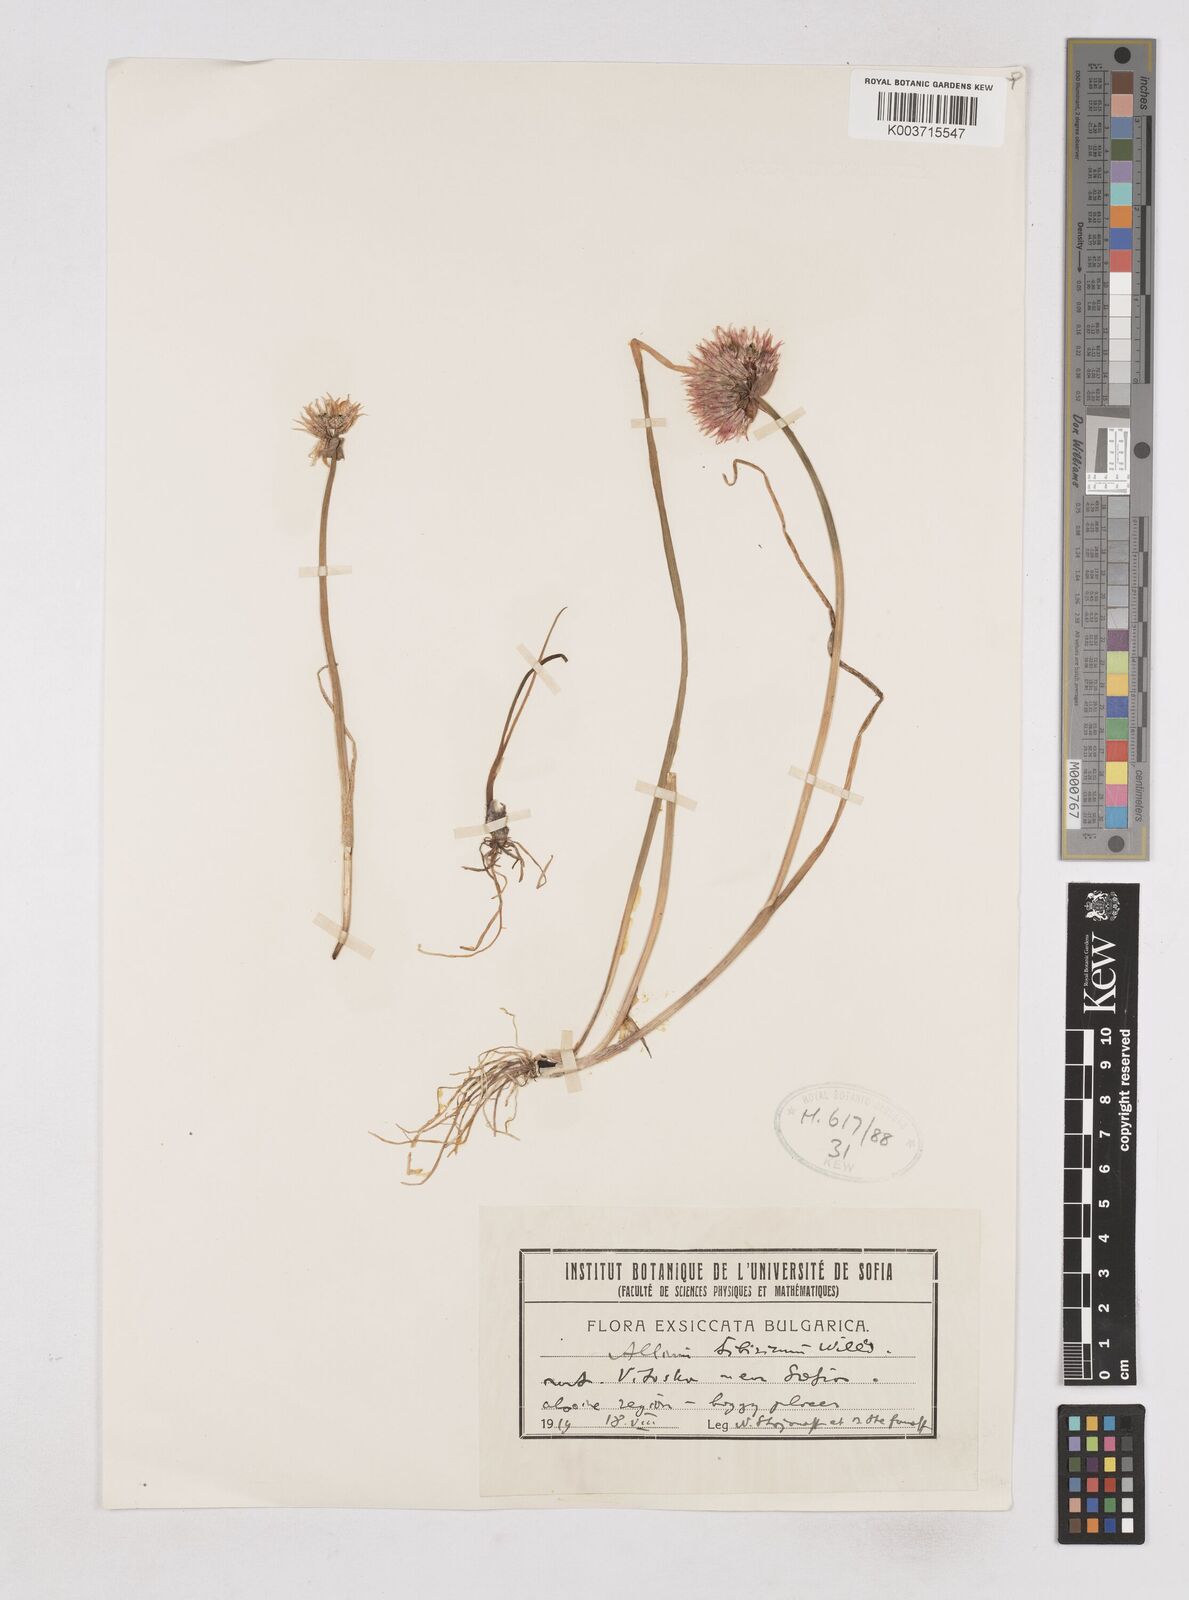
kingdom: Plantae
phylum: Tracheophyta
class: Liliopsida
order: Asparagales
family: Amaryllidaceae
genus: Allium
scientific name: Allium schoenoprasum
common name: Chives
